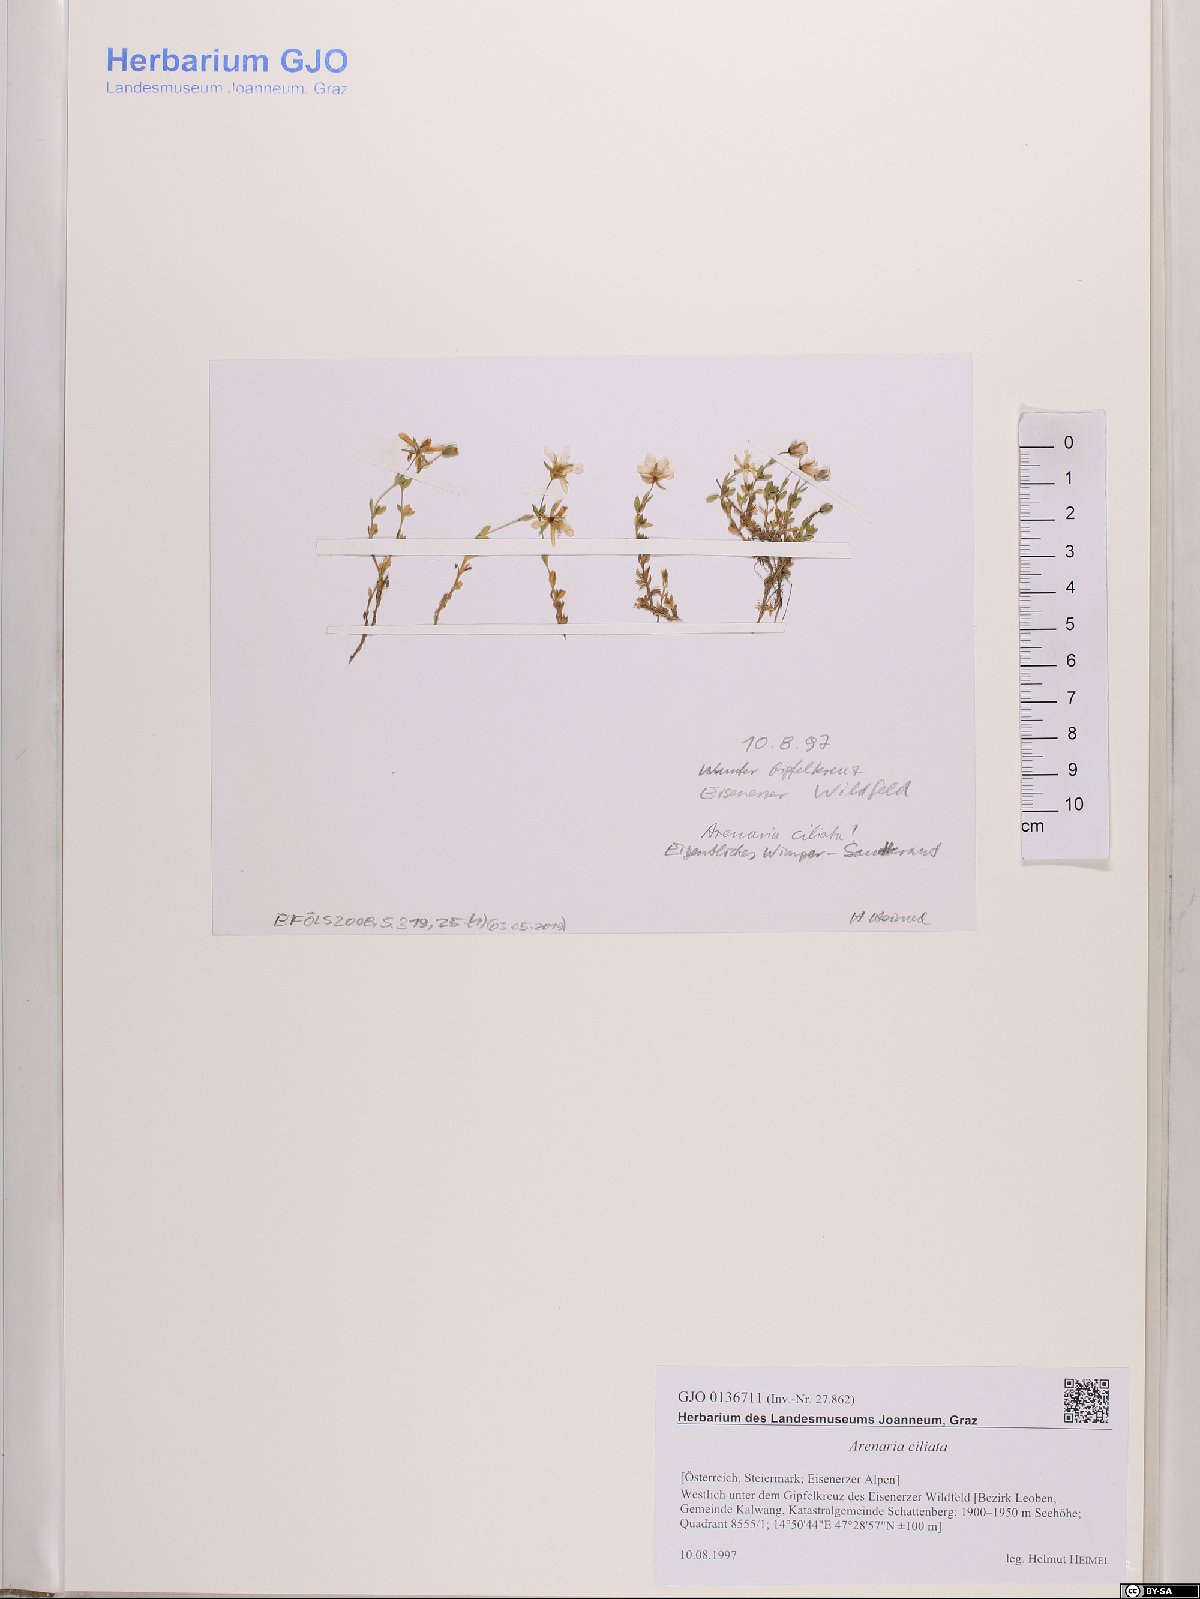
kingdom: Plantae
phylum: Tracheophyta
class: Magnoliopsida
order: Caryophyllales
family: Caryophyllaceae
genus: Arenaria
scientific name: Arenaria ciliata
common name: Fringed sandwort
